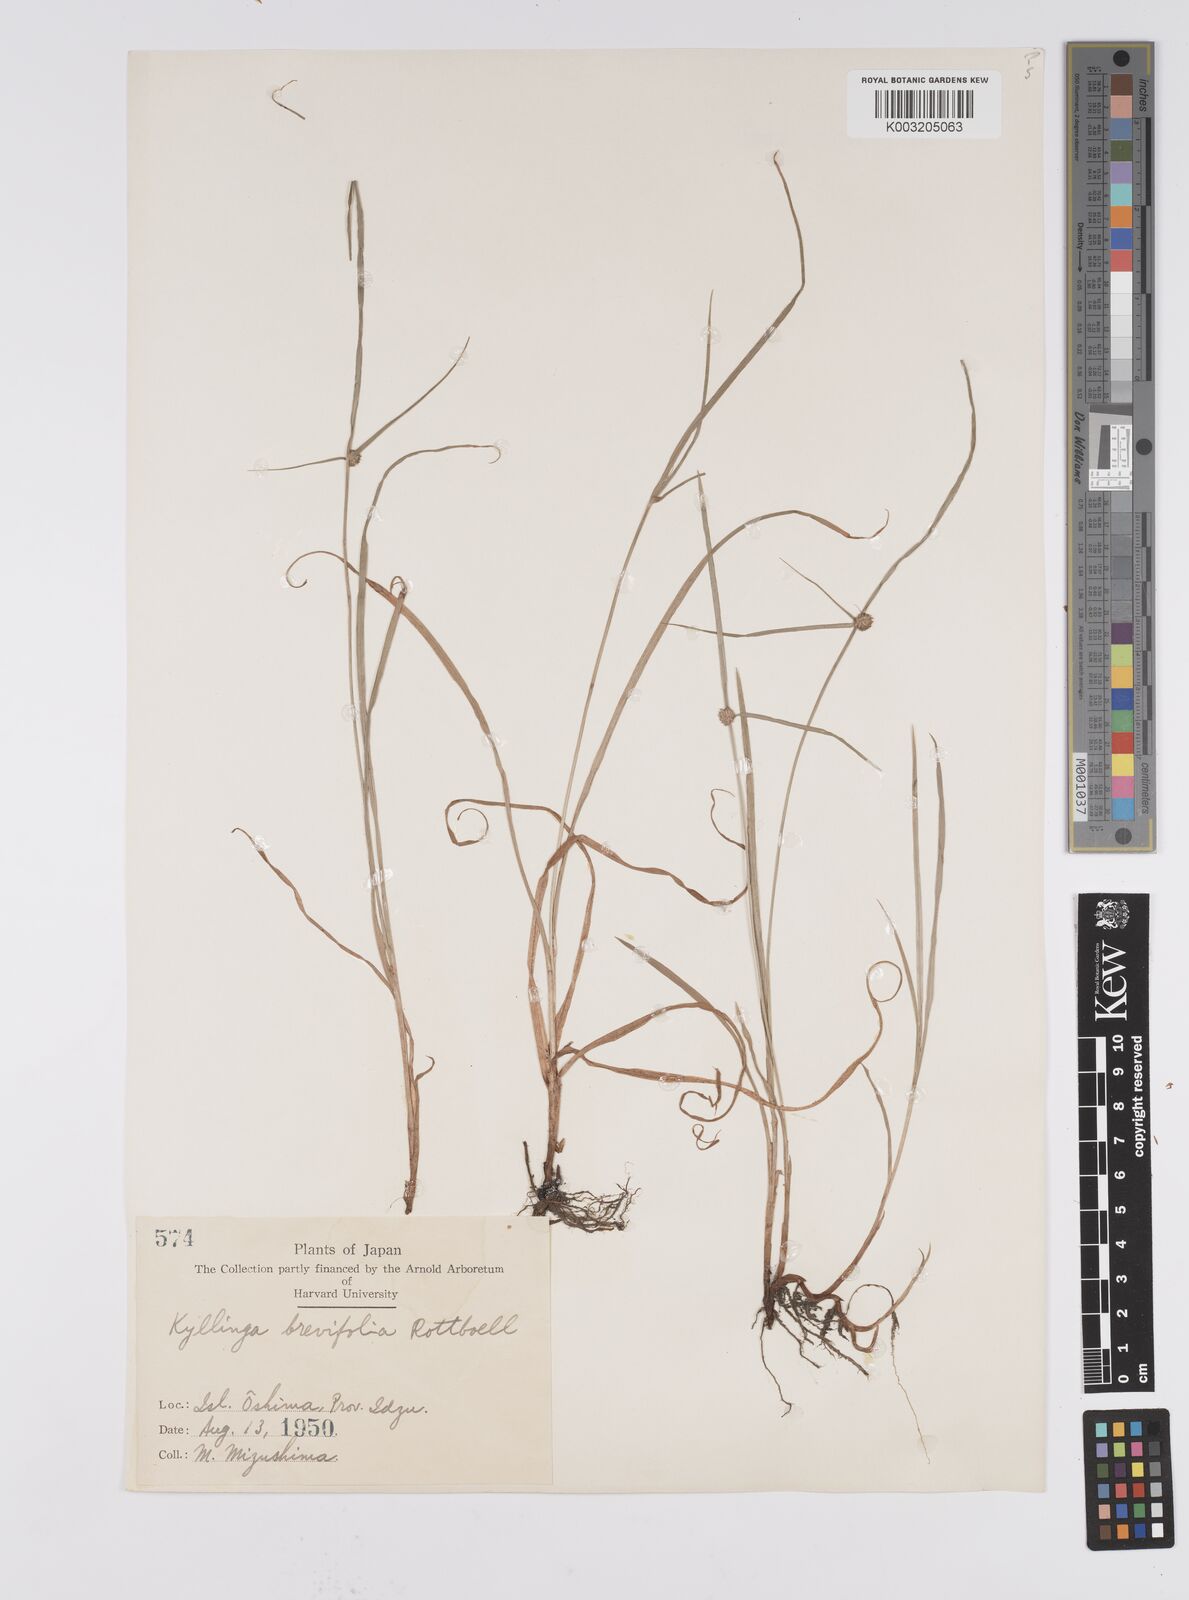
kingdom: Plantae
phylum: Tracheophyta
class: Liliopsida
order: Poales
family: Cyperaceae
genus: Cyperus
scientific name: Cyperus brevifolius
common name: Globe kyllinga
